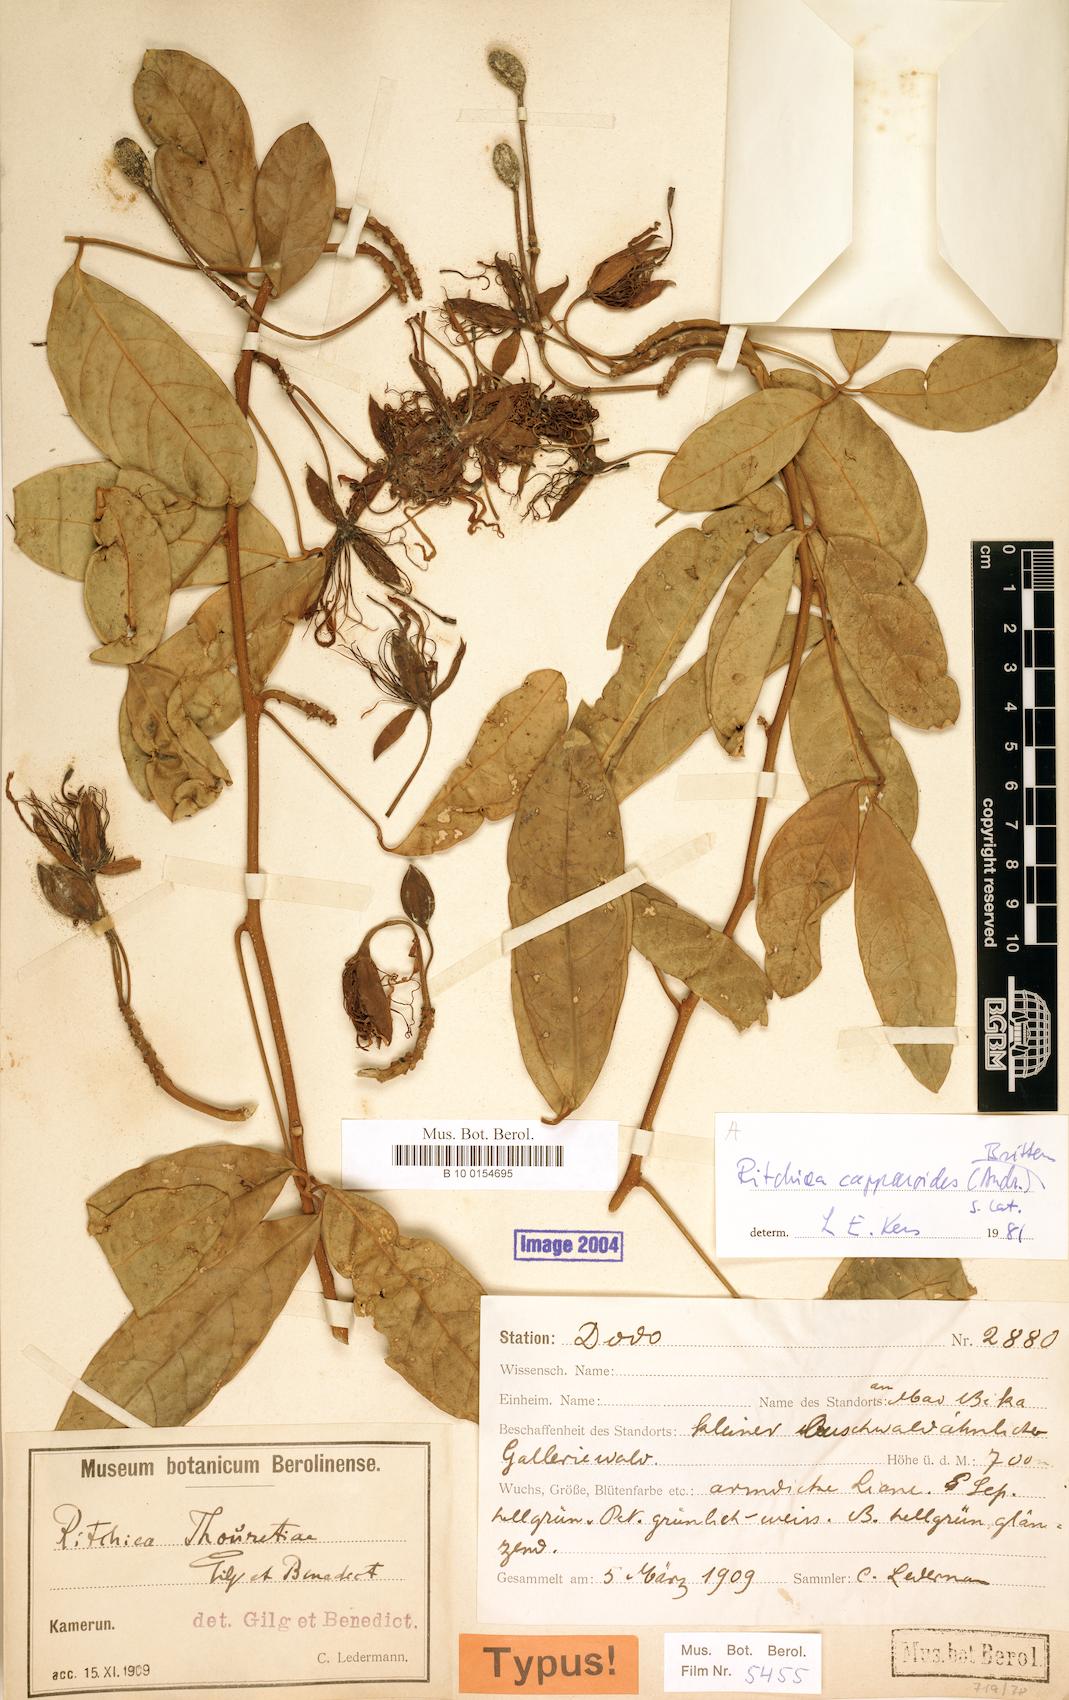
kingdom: Plantae
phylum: Tracheophyta
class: Magnoliopsida
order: Brassicales
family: Capparaceae
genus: Ritchiea
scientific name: Ritchiea capparoides
